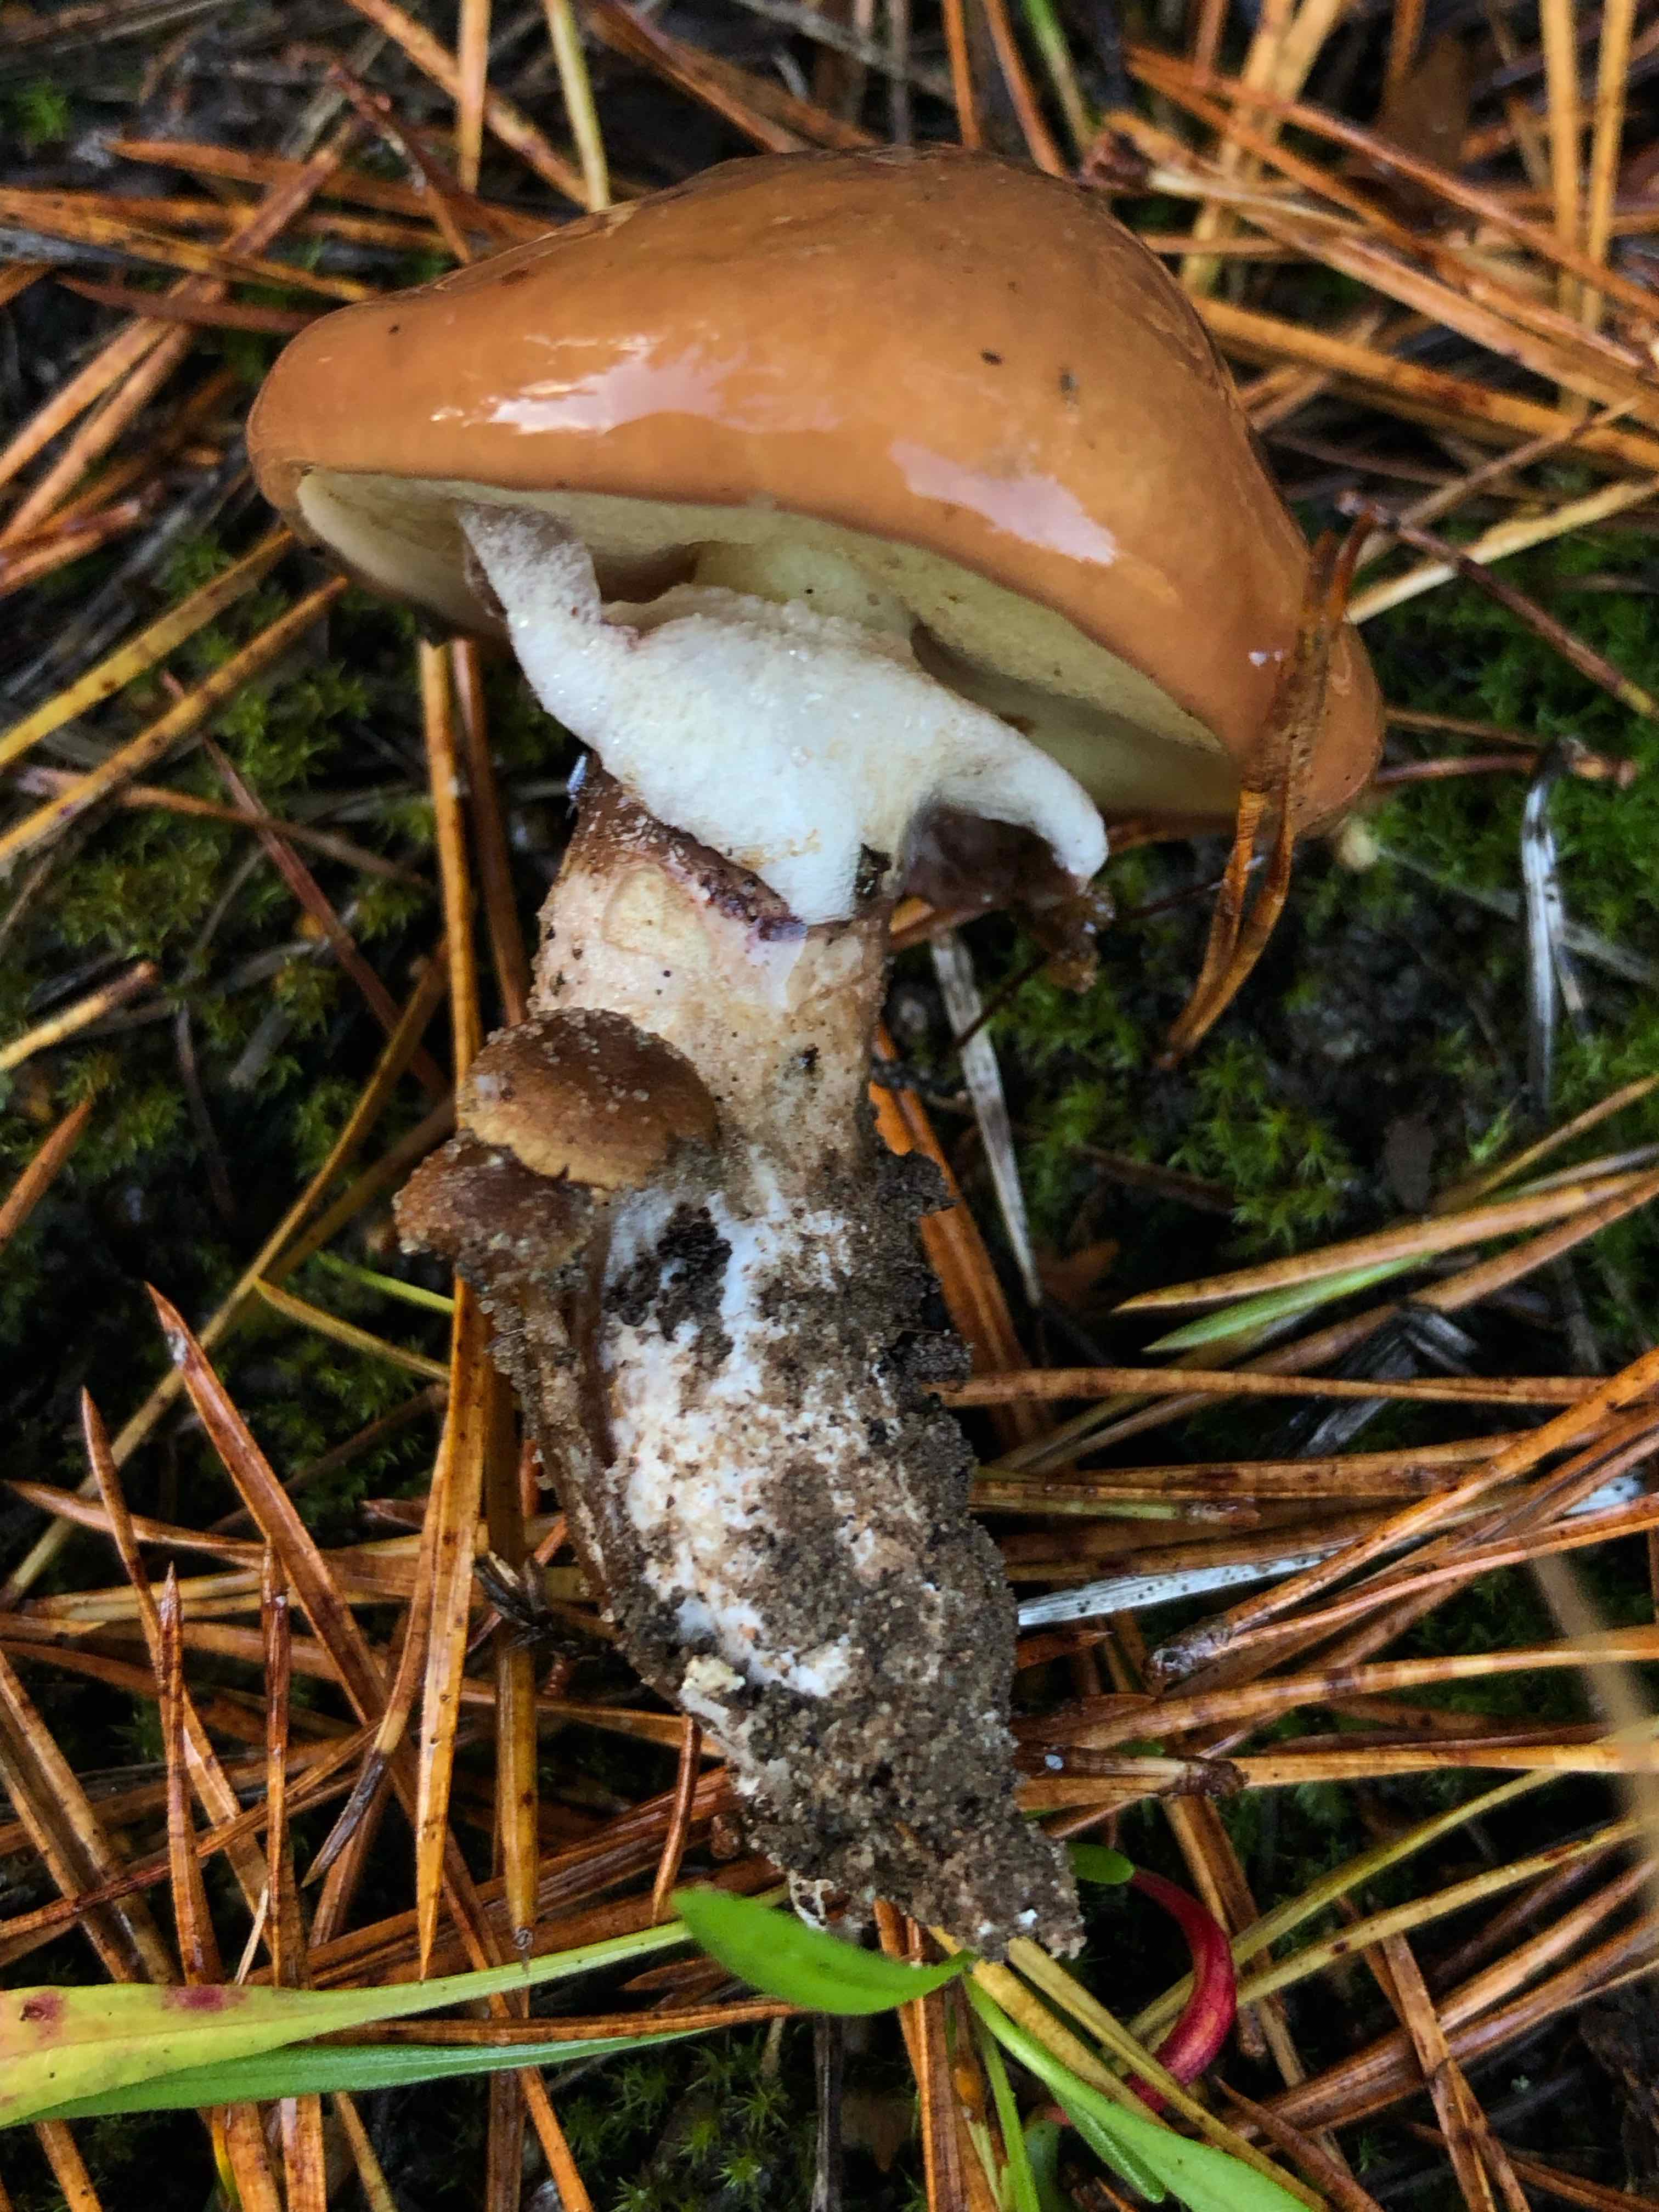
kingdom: Fungi
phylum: Basidiomycota
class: Agaricomycetes
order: Boletales
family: Suillaceae
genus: Suillus
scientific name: Suillus luteus
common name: brungul slimrørhat
